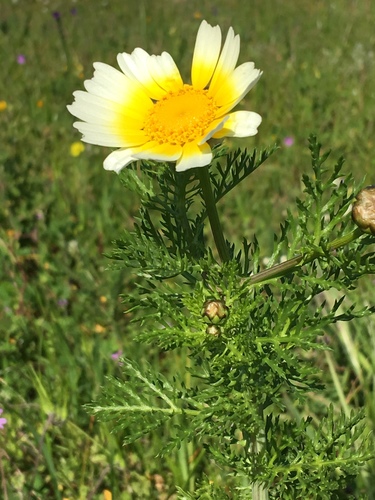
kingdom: Plantae
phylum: Tracheophyta
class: Magnoliopsida
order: Asterales
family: Asteraceae
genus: Glebionis
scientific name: Glebionis coronaria
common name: Crowndaisy
